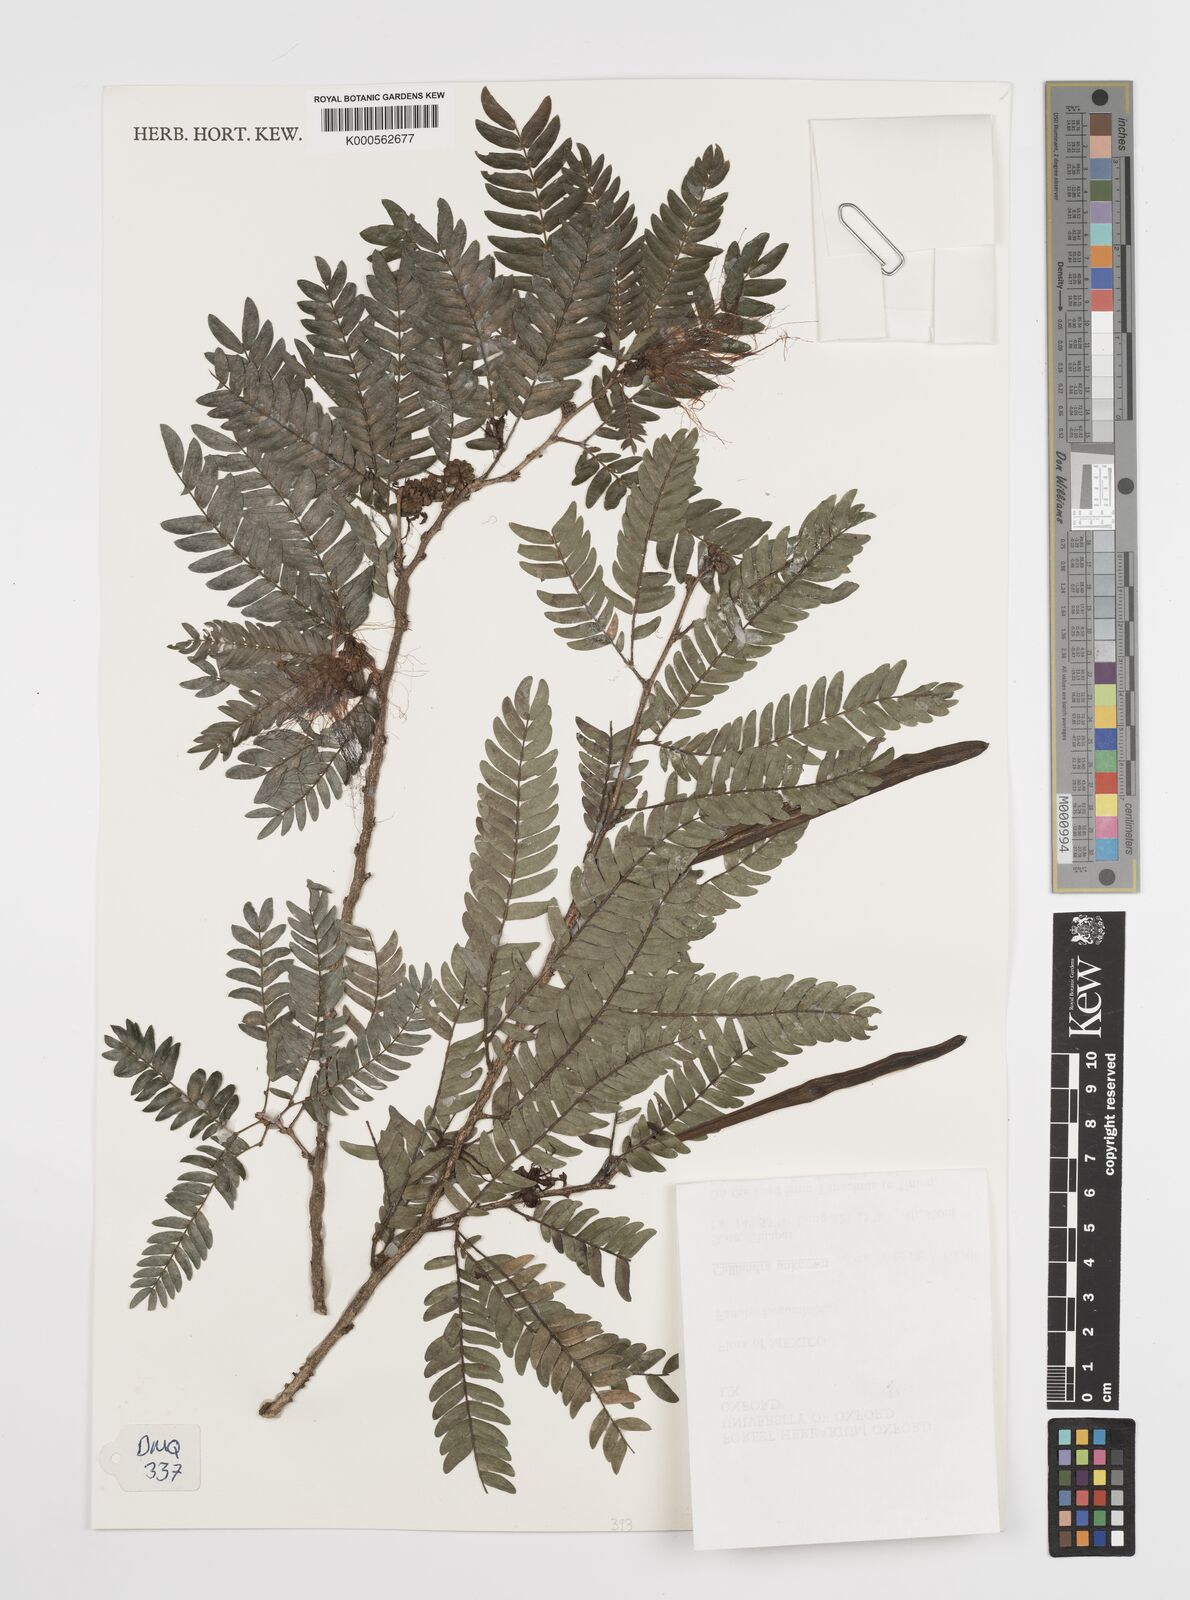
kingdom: Plantae
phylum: Tracheophyta
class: Magnoliopsida
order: Fabales
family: Fabaceae
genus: Calliandra
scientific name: Calliandra magdalenae
